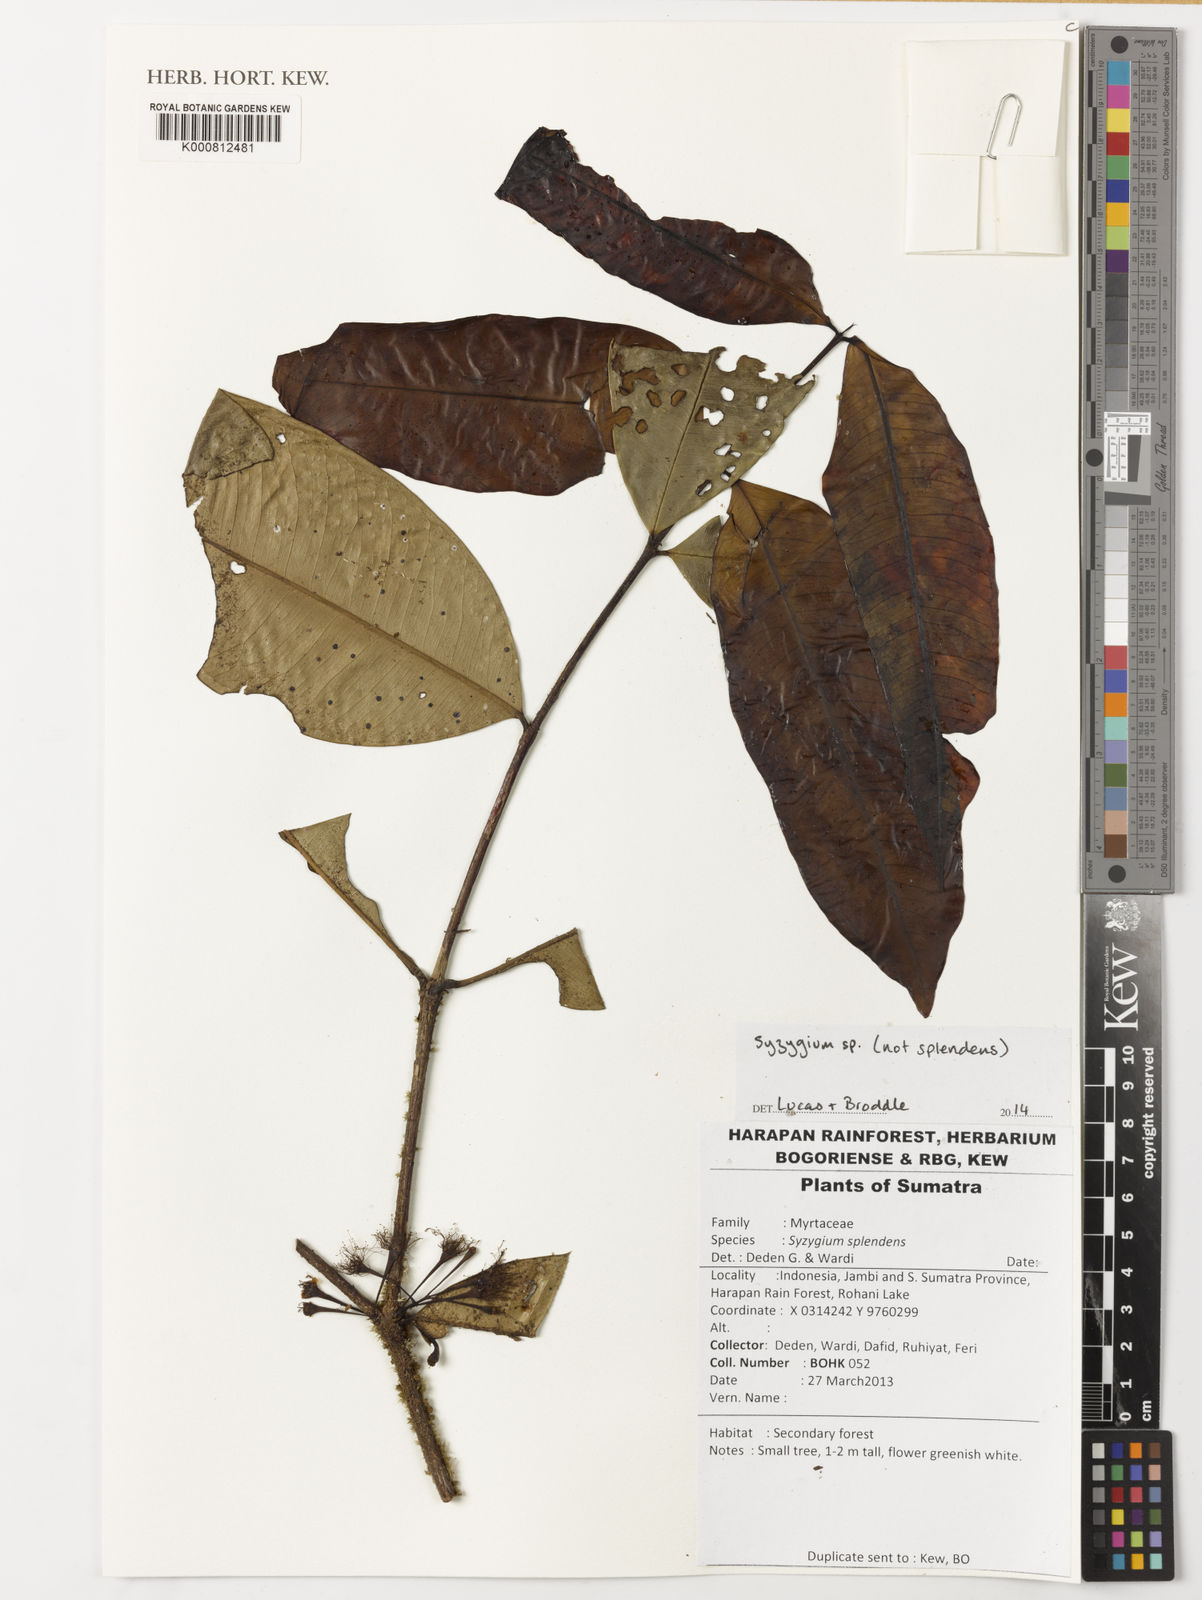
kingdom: Plantae
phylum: Tracheophyta
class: Magnoliopsida
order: Myrtales
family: Myrtaceae
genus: Syzygium
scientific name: Syzygium
